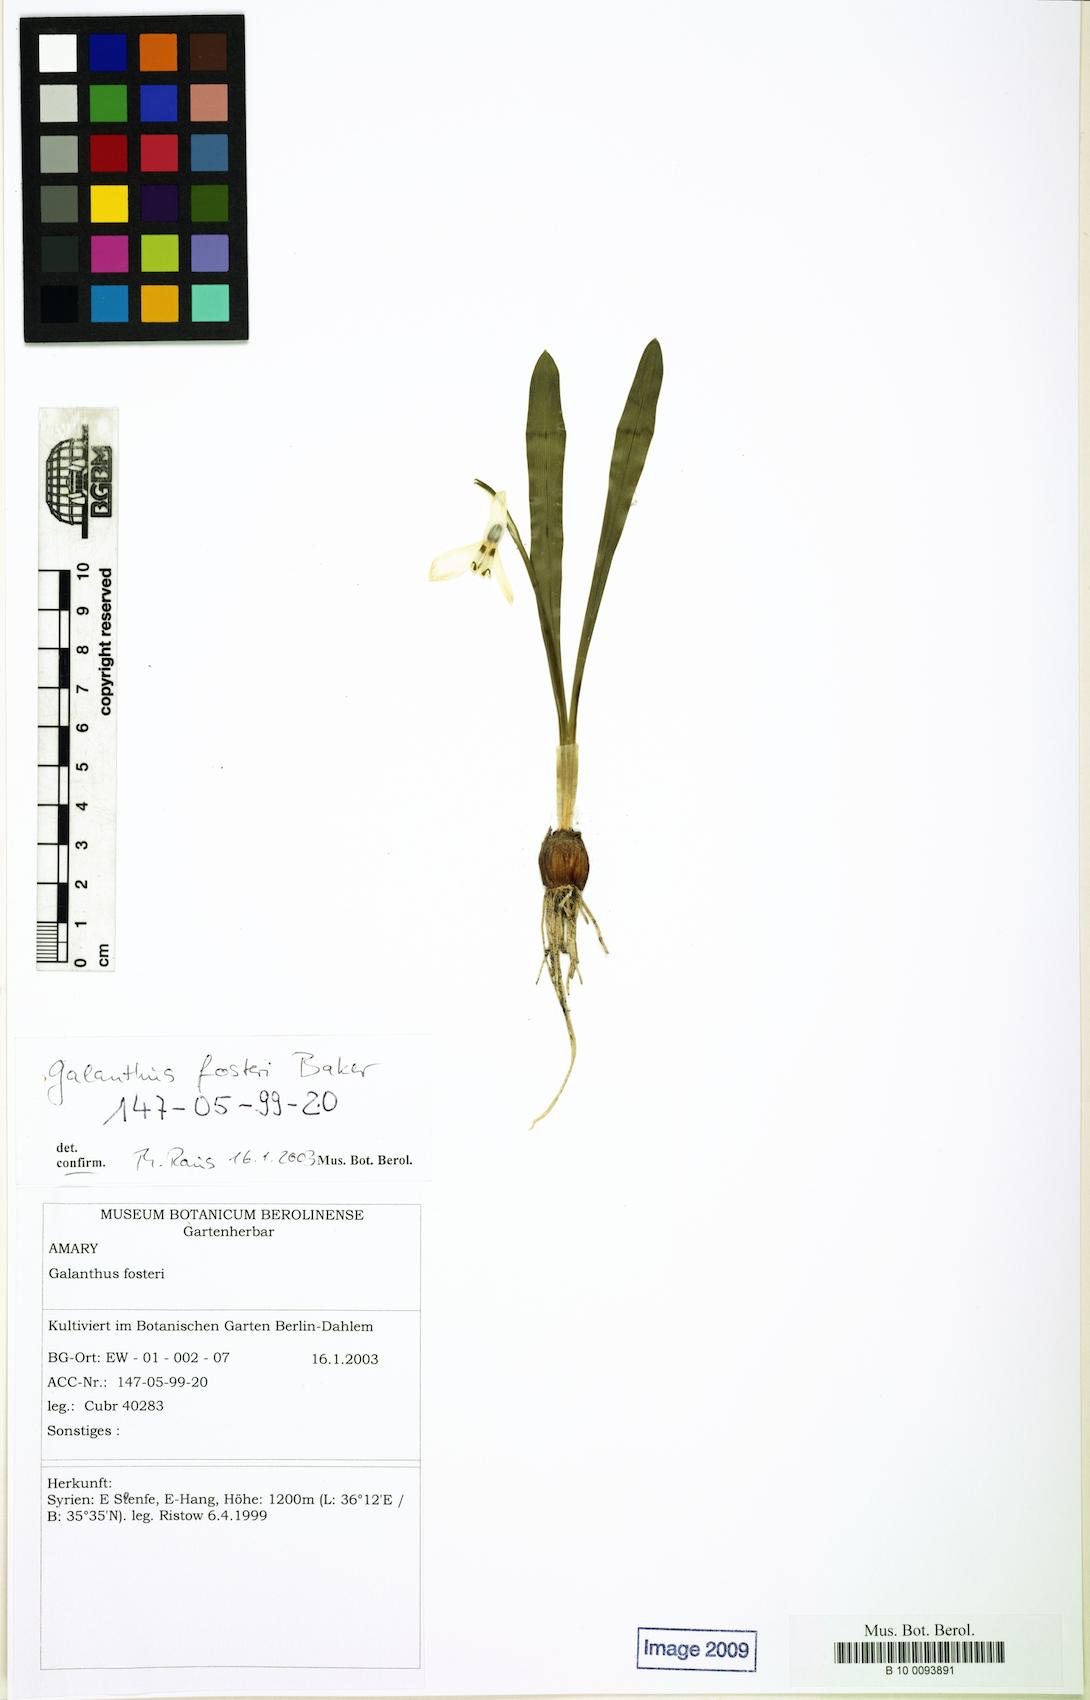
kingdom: Plantae
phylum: Tracheophyta
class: Liliopsida
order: Asparagales
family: Amaryllidaceae
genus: Galanthus
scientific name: Galanthus fosteri
